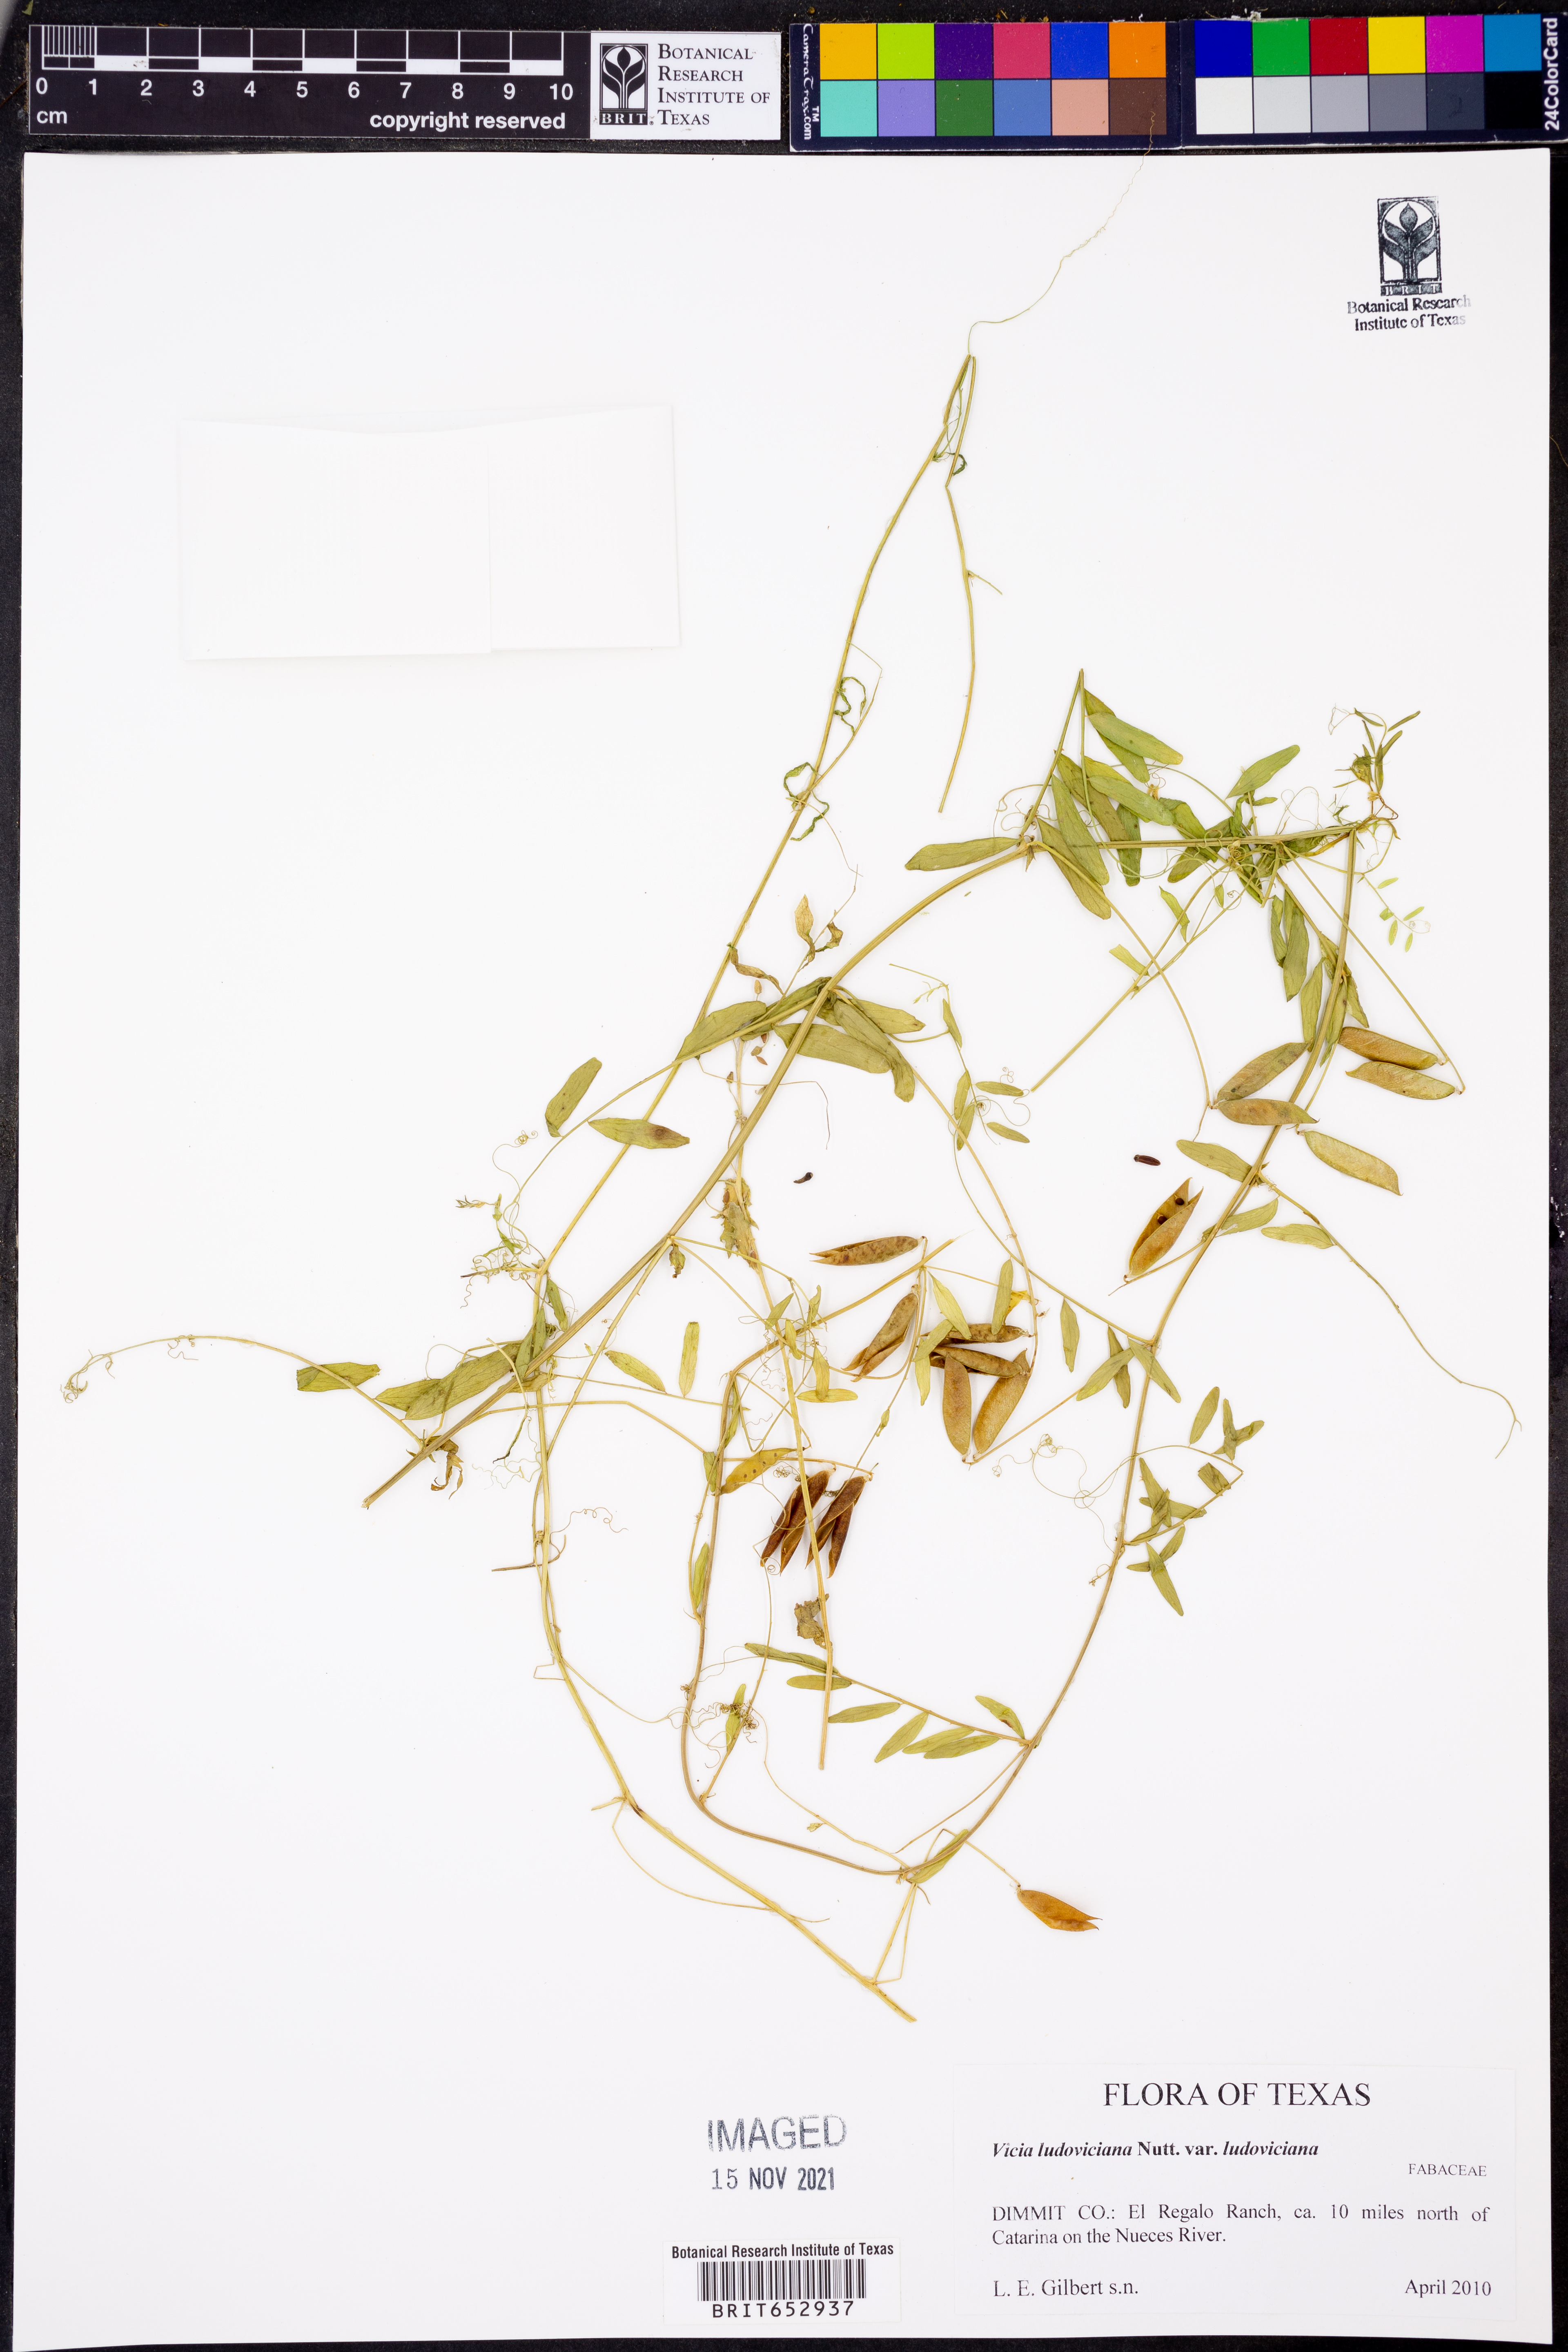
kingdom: Plantae
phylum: Tracheophyta
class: Magnoliopsida
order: Fabales
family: Fabaceae
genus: Vicia
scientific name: Vicia ludoviciana
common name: Louisiana vetch
